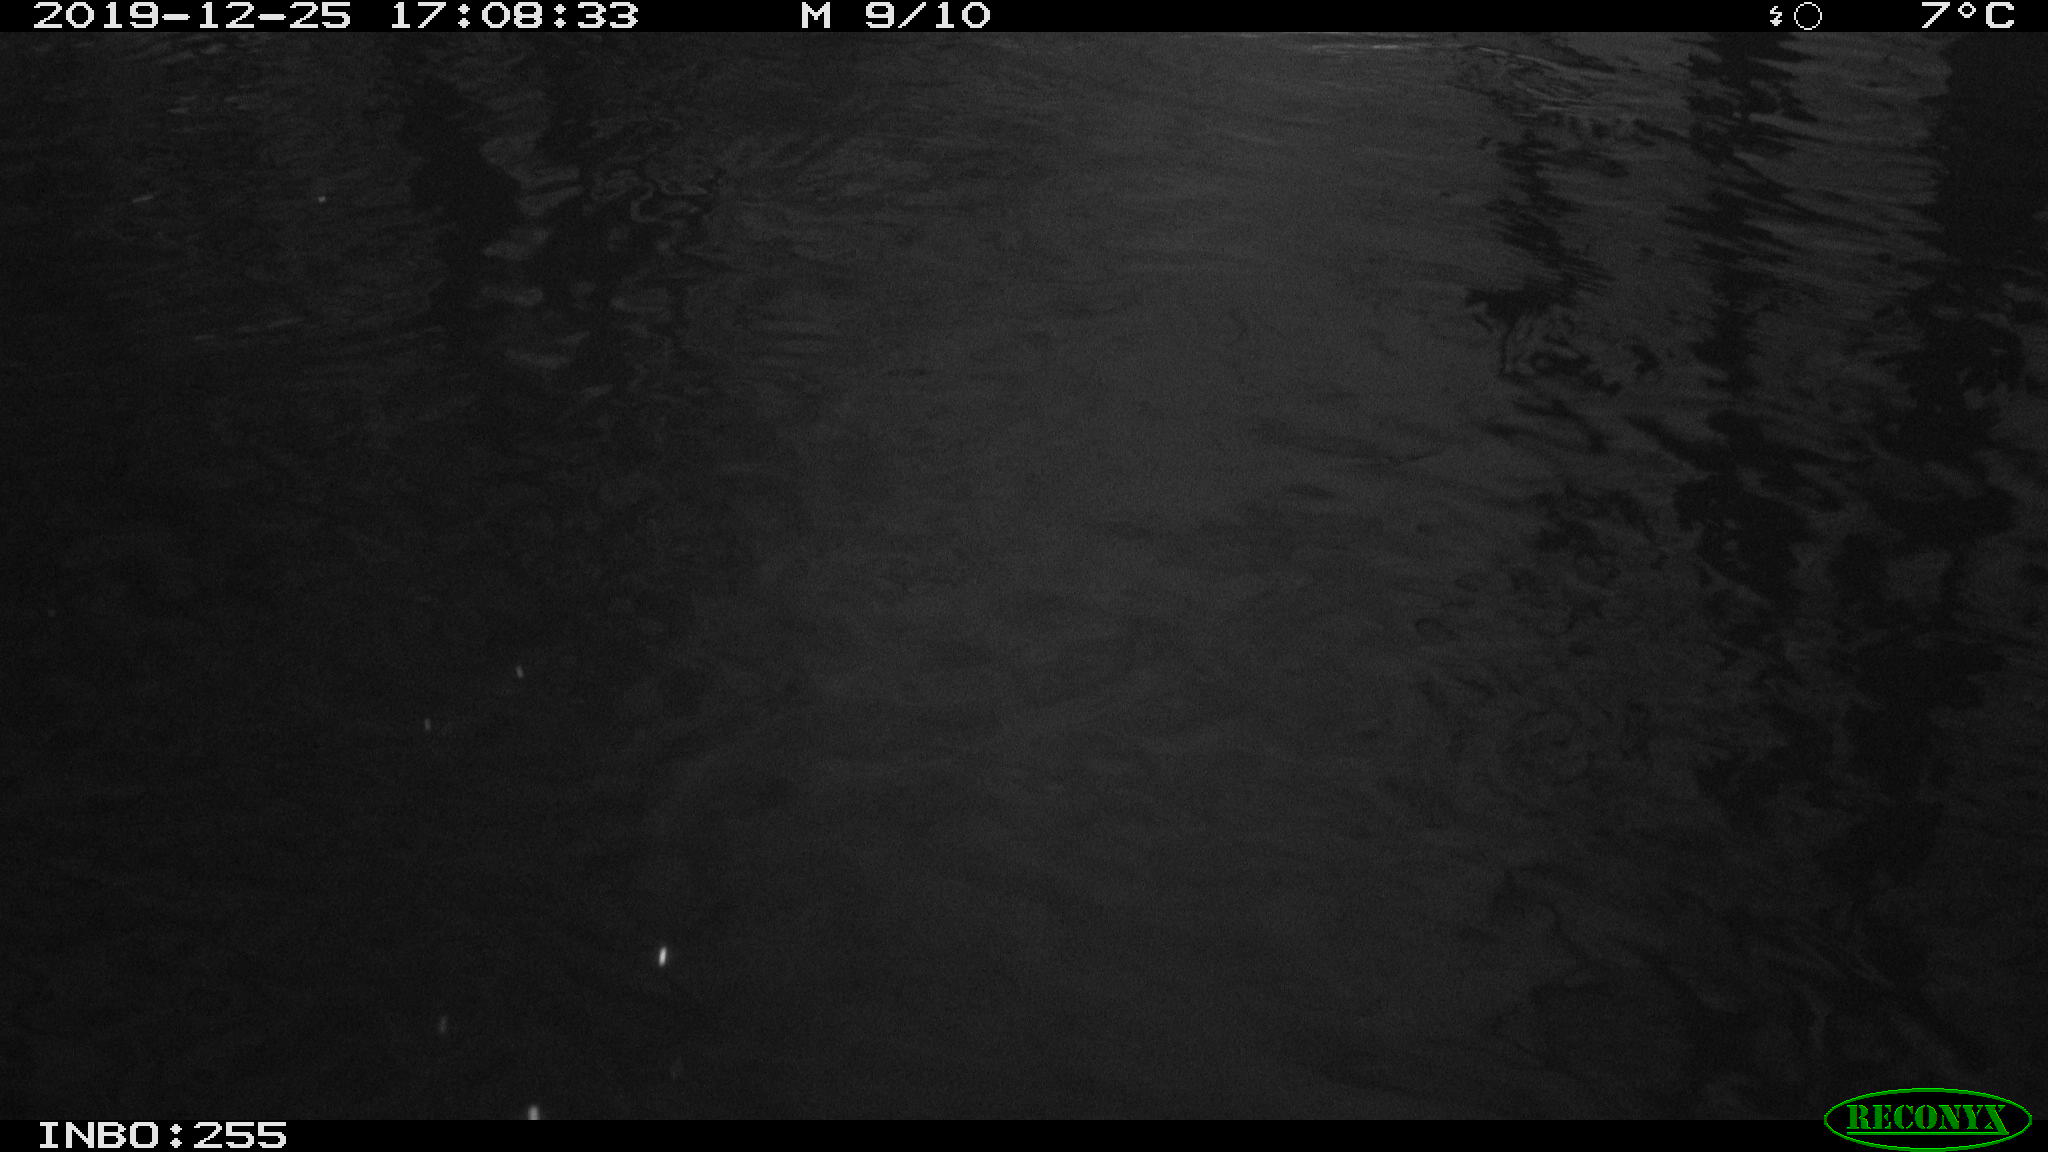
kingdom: Animalia
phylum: Chordata
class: Aves
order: Anseriformes
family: Anatidae
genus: Anas
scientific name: Anas platyrhynchos
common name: Mallard
